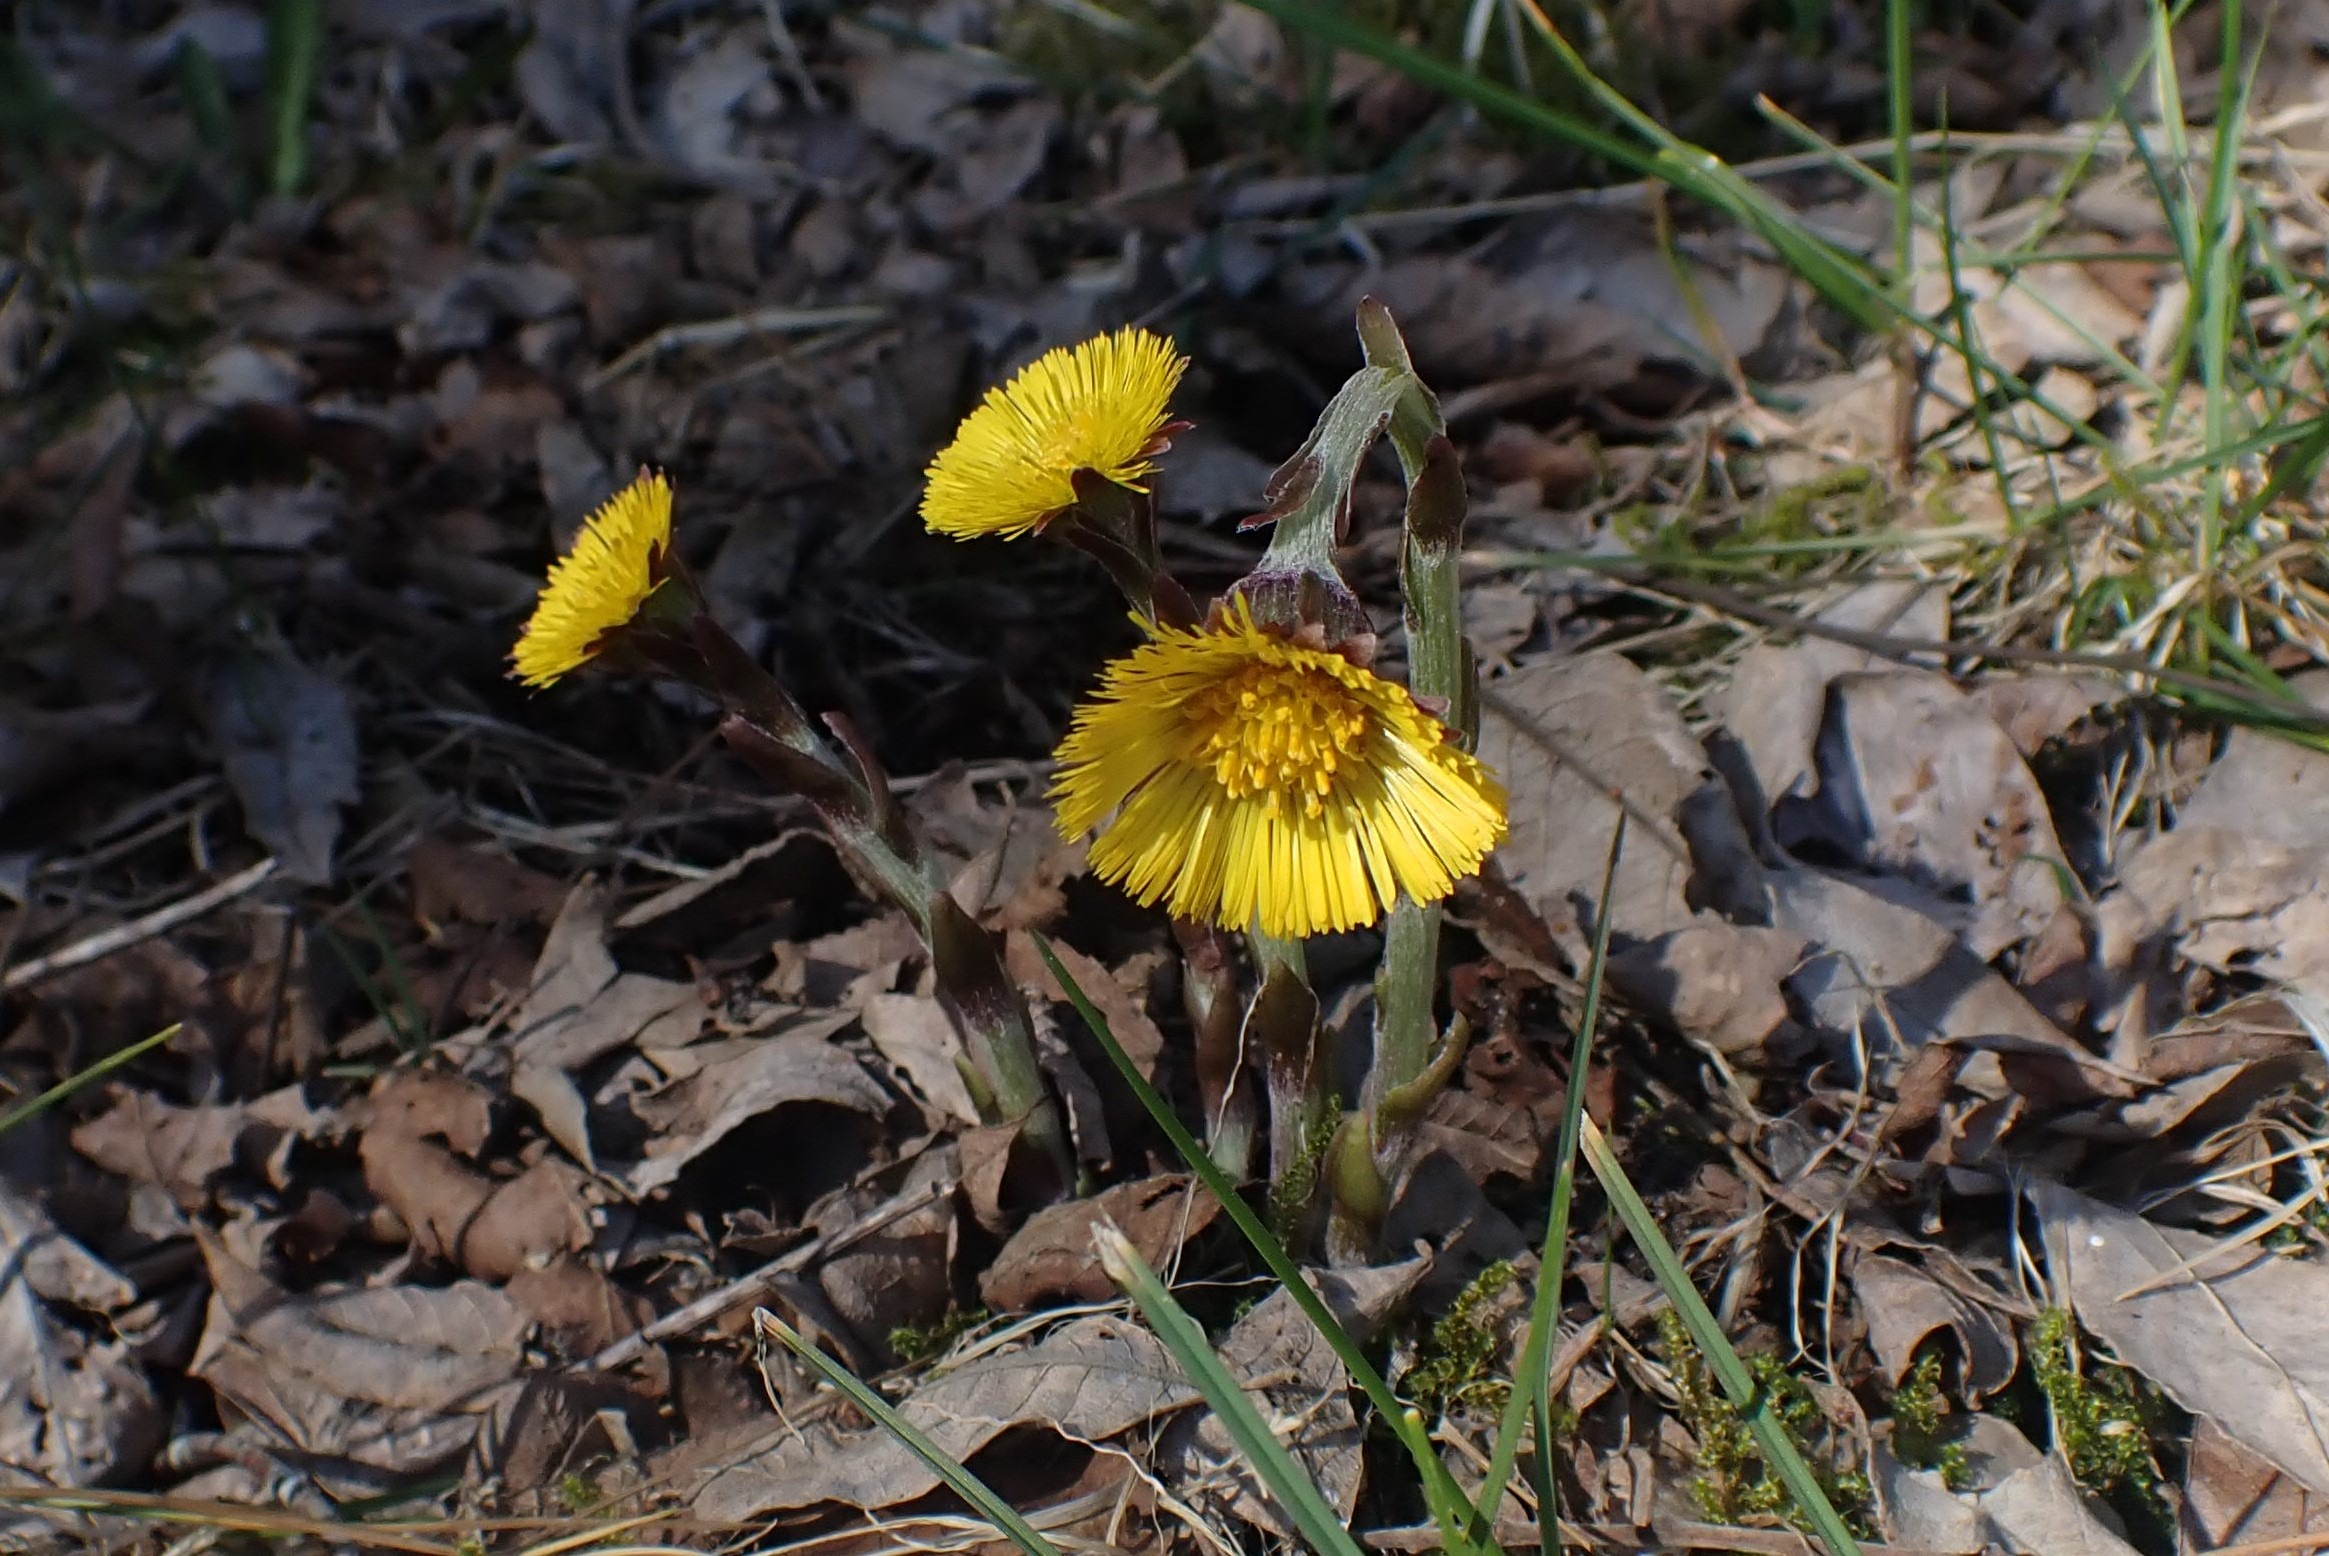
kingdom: Plantae
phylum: Tracheophyta
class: Magnoliopsida
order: Asterales
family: Asteraceae
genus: Tussilago
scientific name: Tussilago farfara
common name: Følfod
